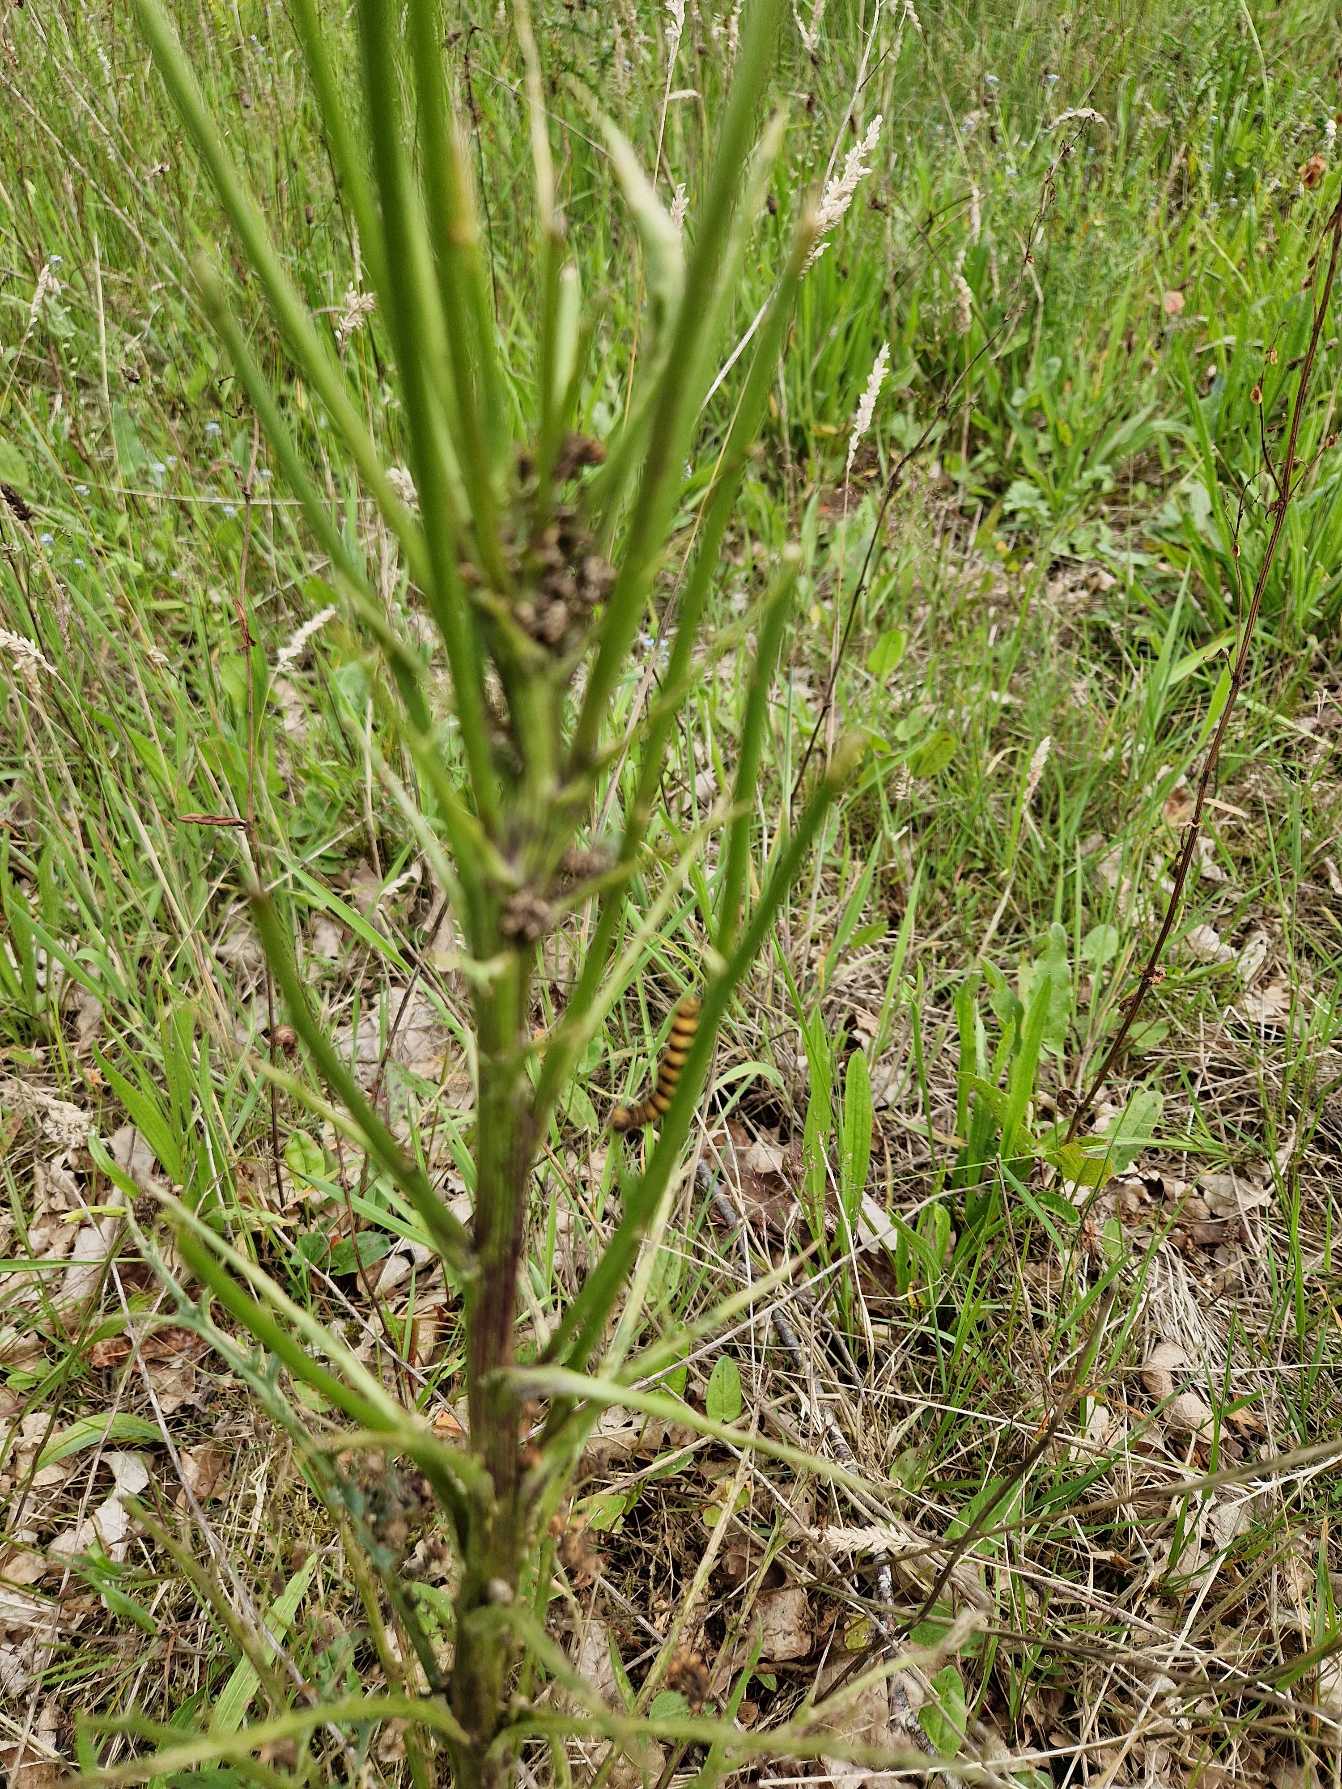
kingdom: Animalia
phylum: Arthropoda
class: Insecta
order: Lepidoptera
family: Erebidae
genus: Tyria
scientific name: Tyria jacobaeae
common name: Blodplet
